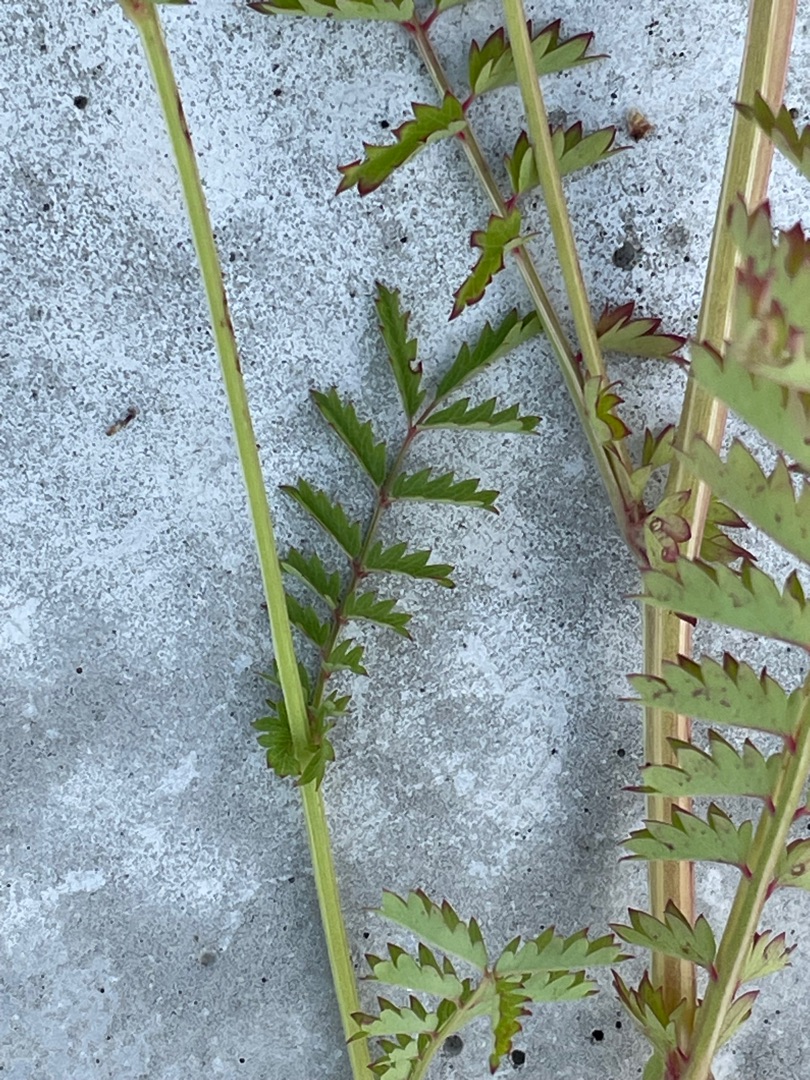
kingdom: Plantae
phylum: Tracheophyta
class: Magnoliopsida
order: Rosales
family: Rosaceae
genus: Poterium
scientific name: Poterium sanguisorba
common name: Bibernelle
